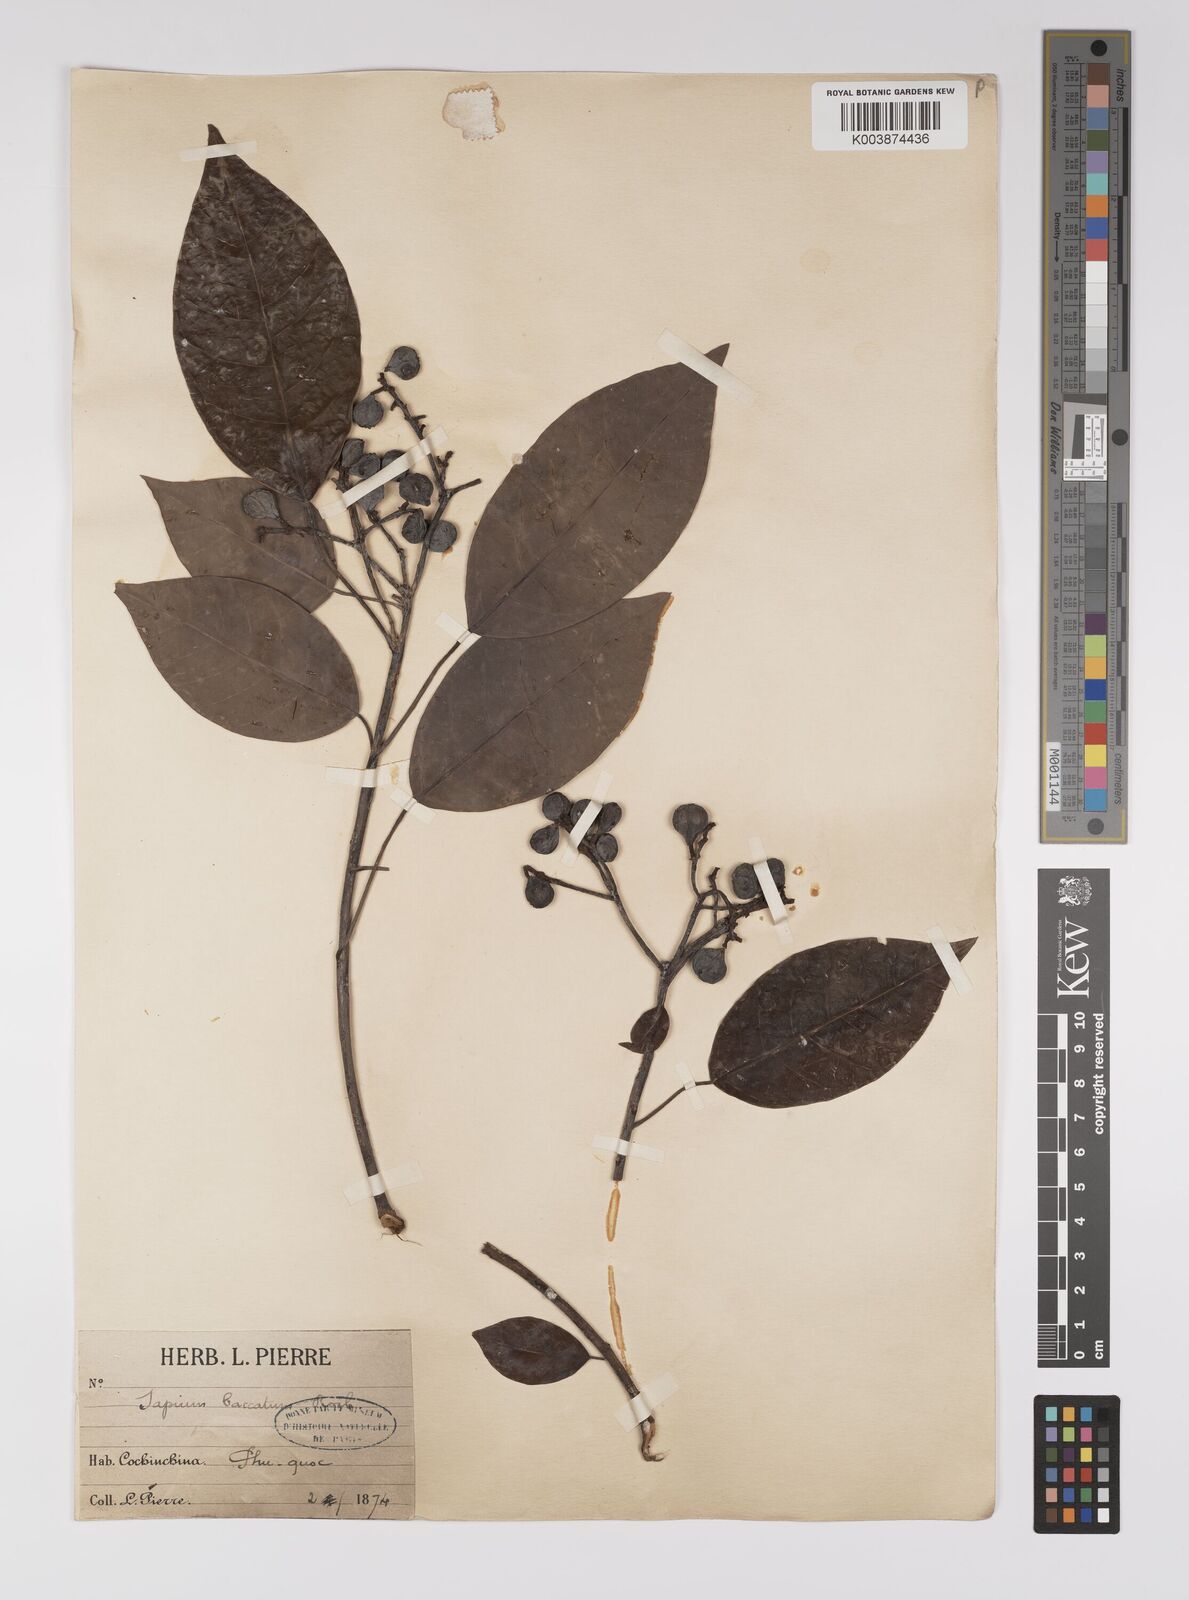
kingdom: Plantae
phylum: Tracheophyta
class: Magnoliopsida
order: Malpighiales
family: Euphorbiaceae
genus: Balakata
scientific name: Balakata baccata
